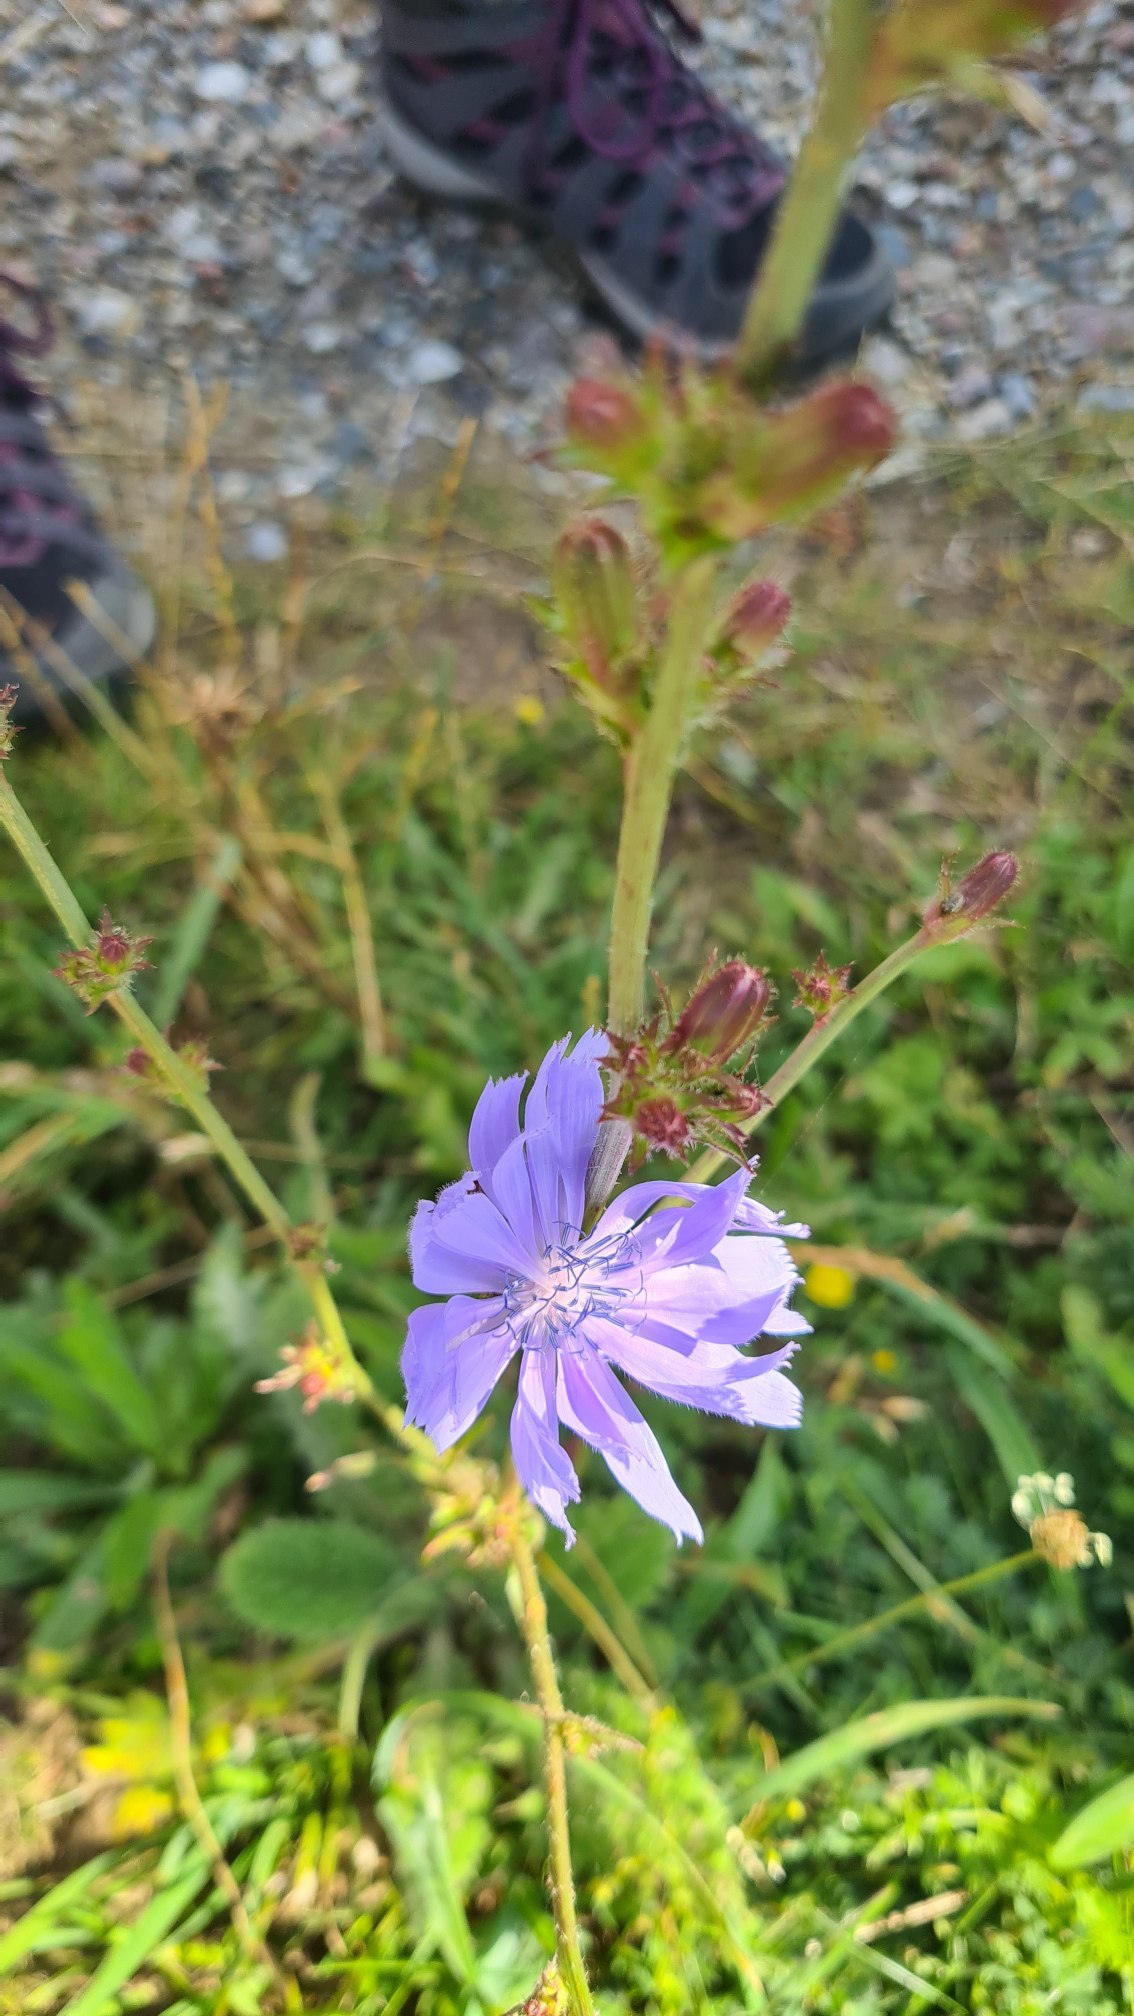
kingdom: Plantae
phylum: Tracheophyta
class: Magnoliopsida
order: Asterales
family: Asteraceae
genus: Cichorium
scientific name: Cichorium intybus
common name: Cikorie
